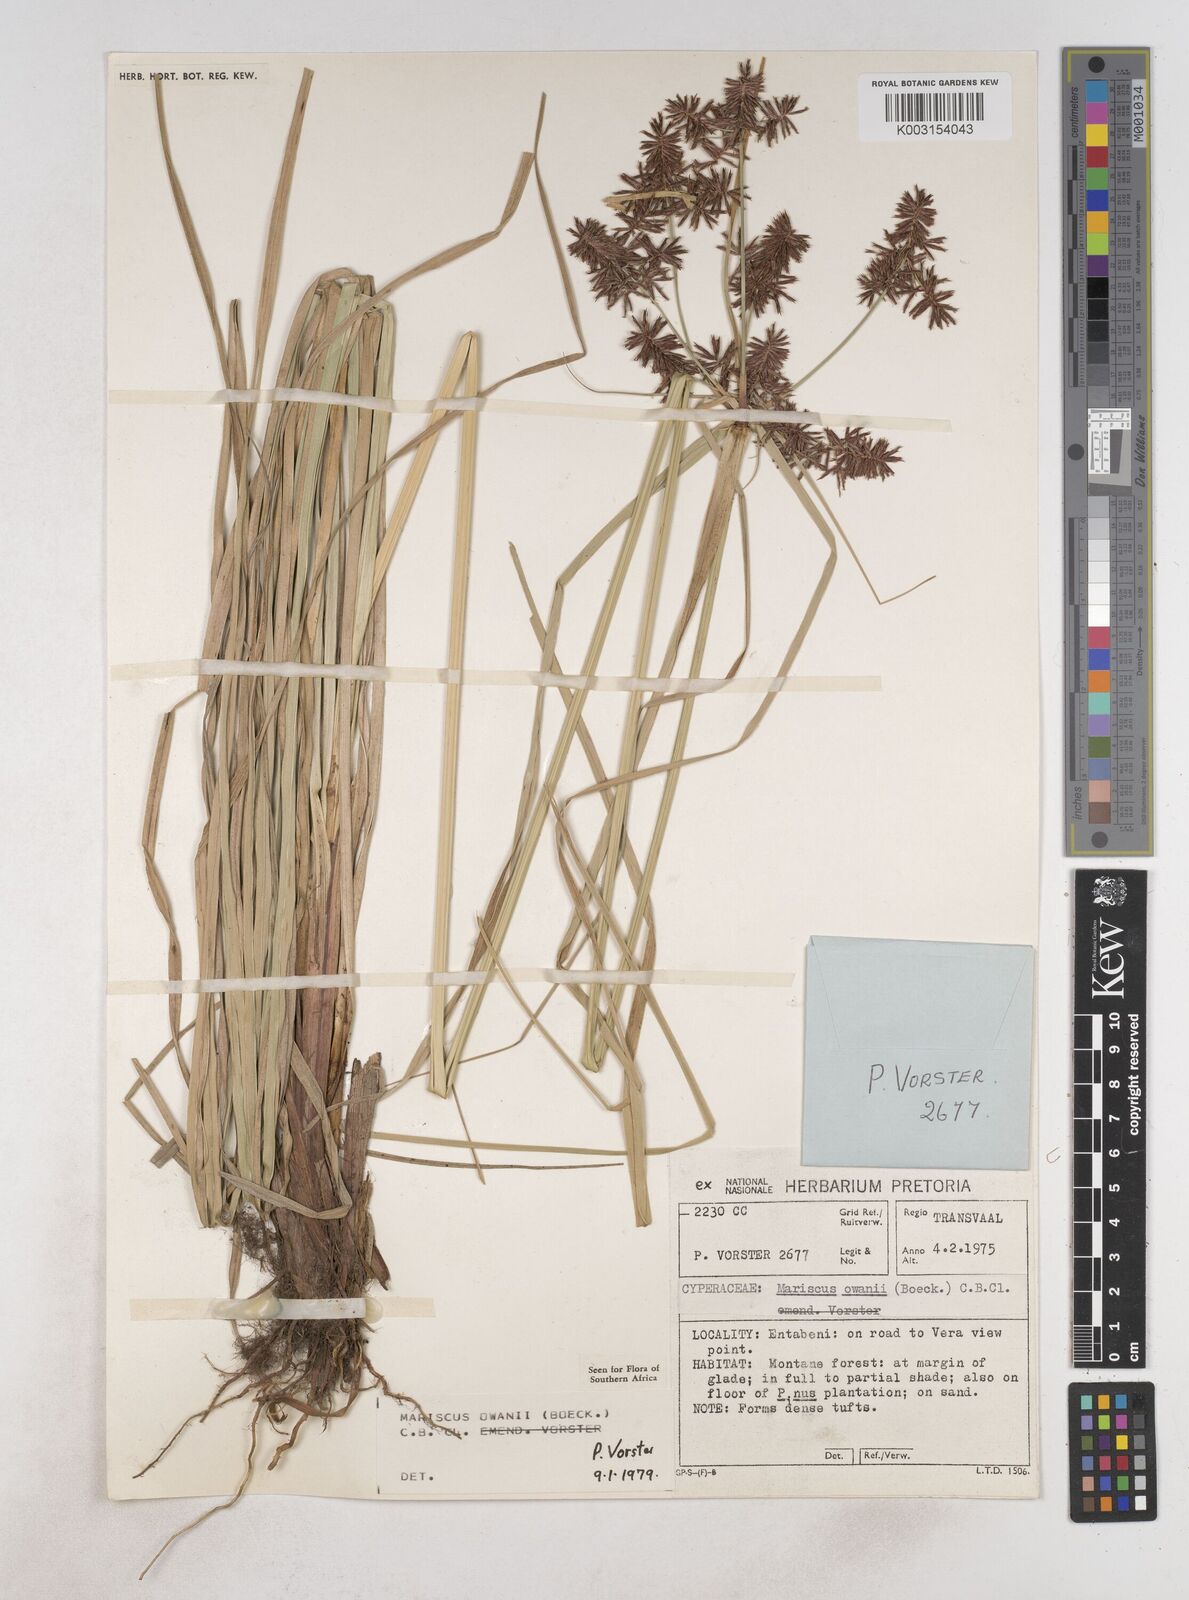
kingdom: Plantae
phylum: Tracheophyta
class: Liliopsida
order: Poales
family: Cyperaceae
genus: Cyperus
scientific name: Cyperus owanii
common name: Owan's flatsedge
